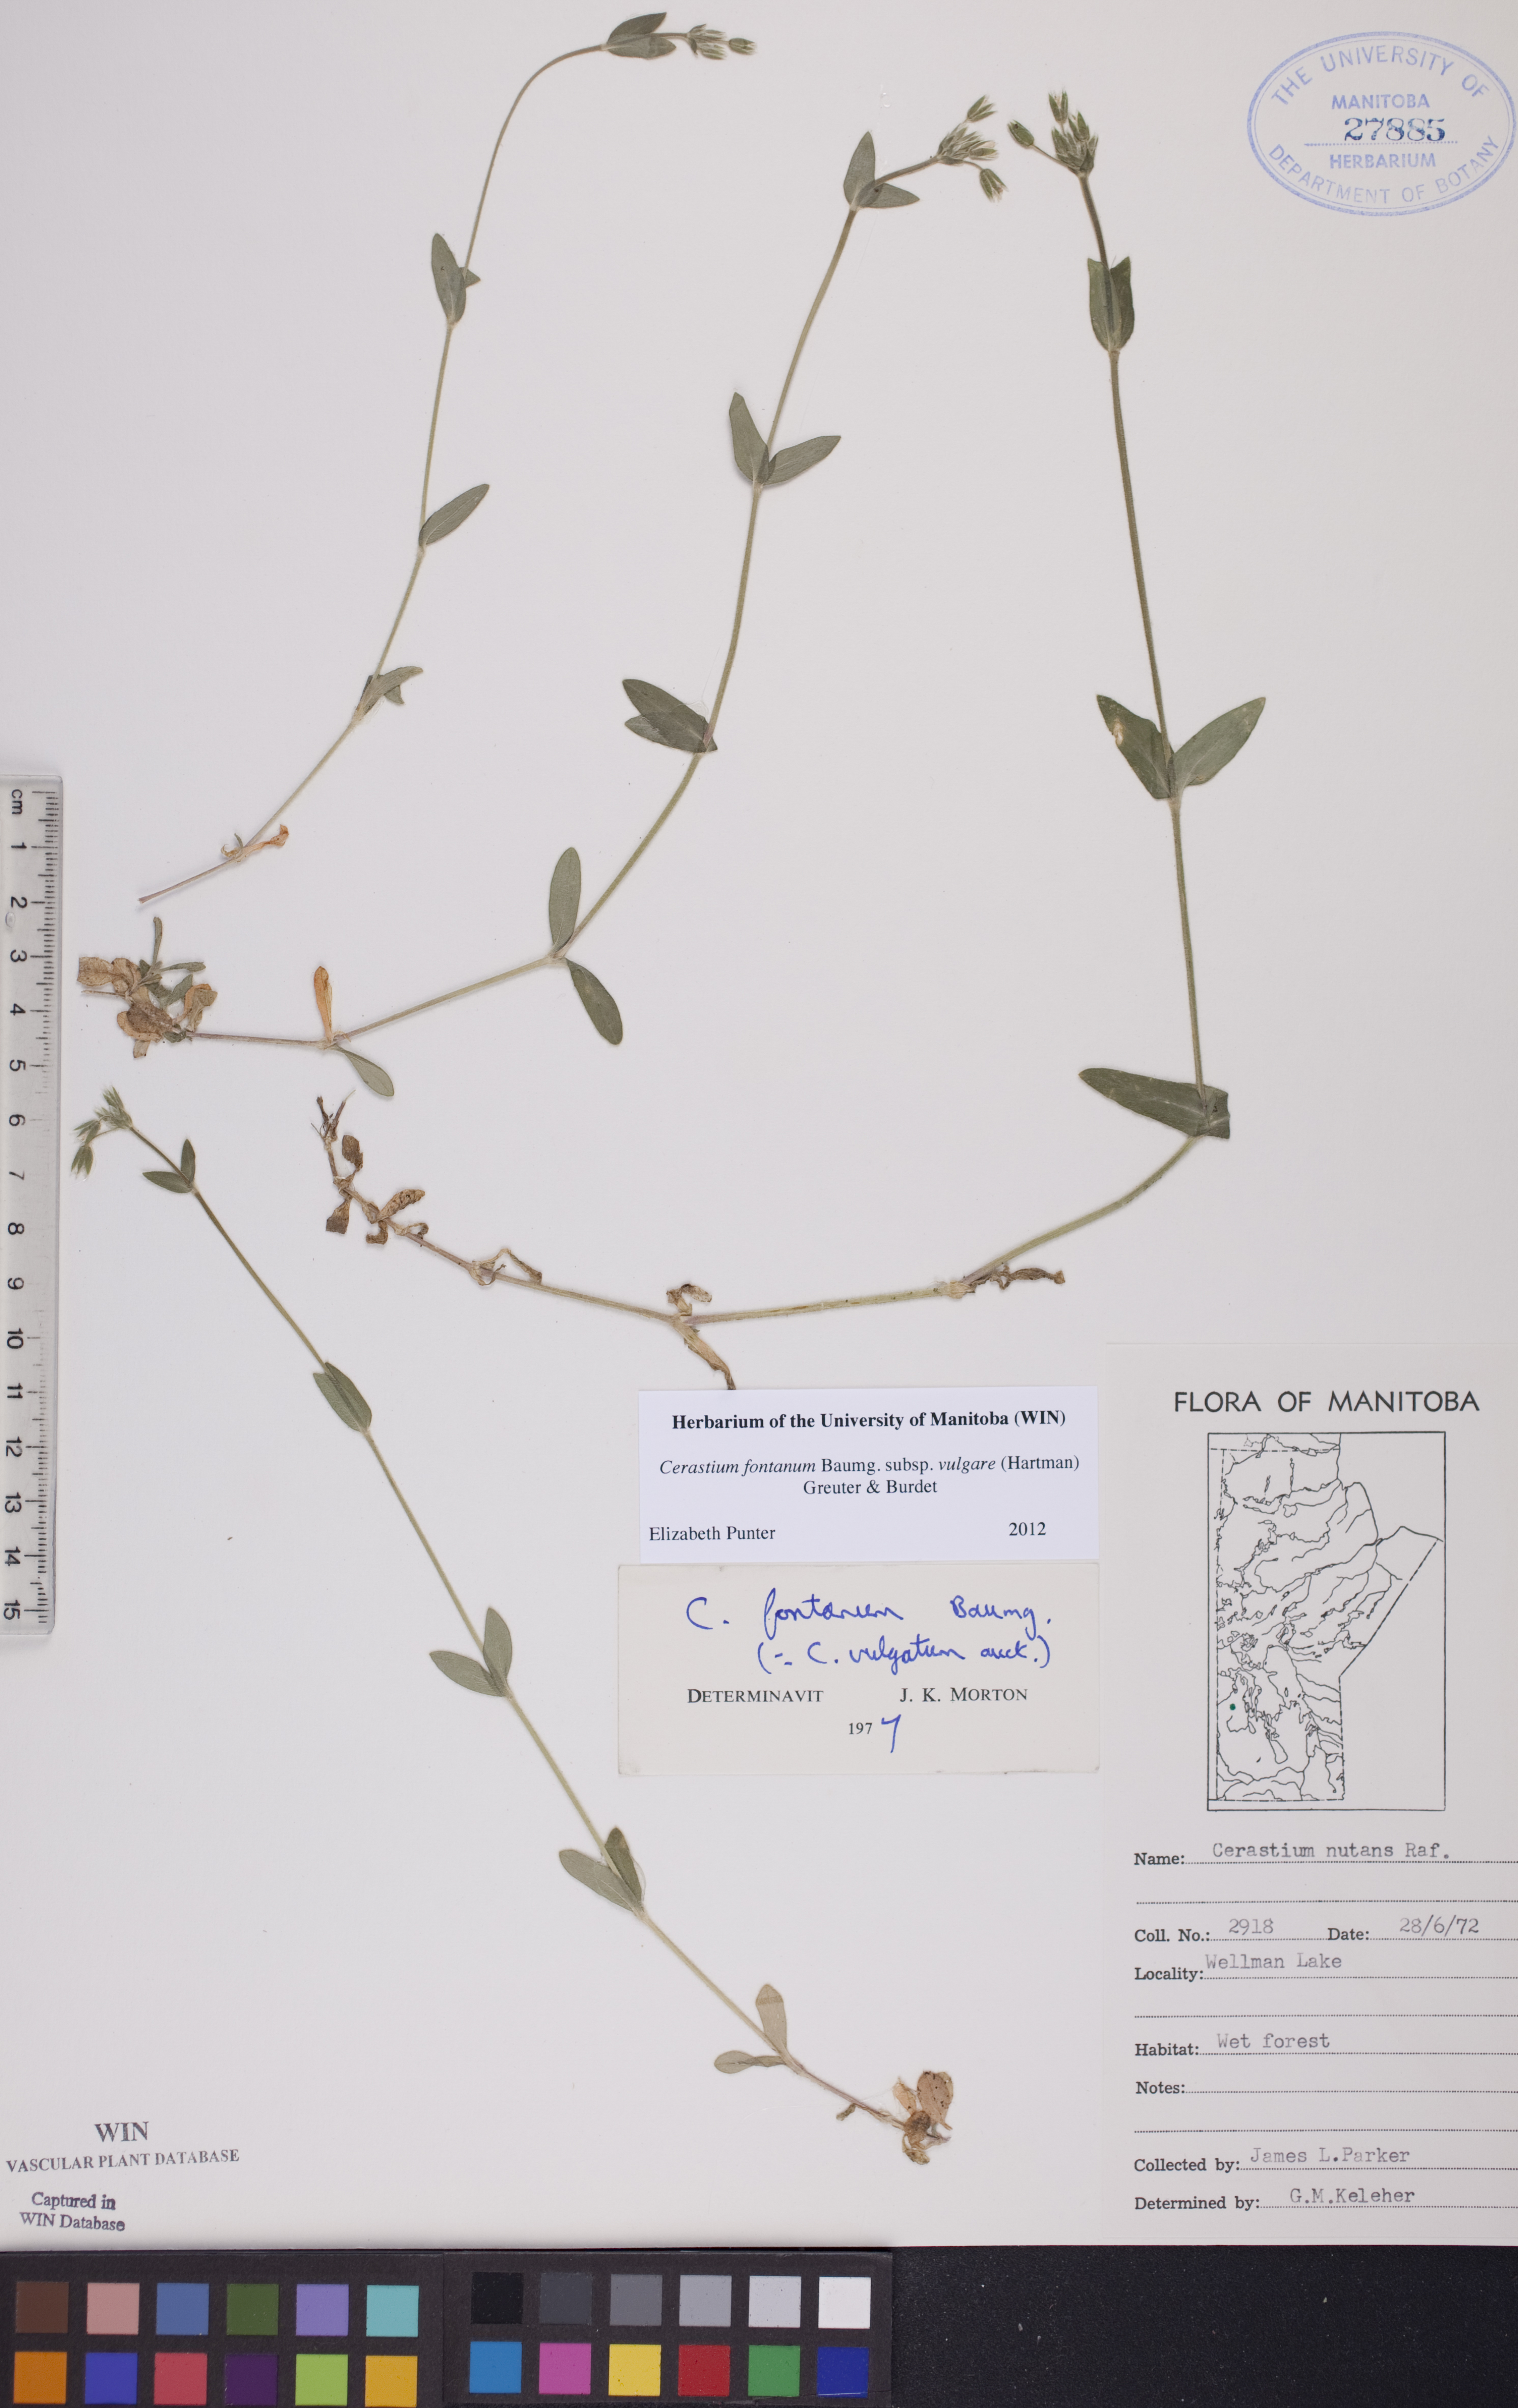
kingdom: Plantae
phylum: Tracheophyta
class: Magnoliopsida
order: Caryophyllales
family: Caryophyllaceae
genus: Cerastium
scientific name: Cerastium holosteoides
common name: Big chickweed
